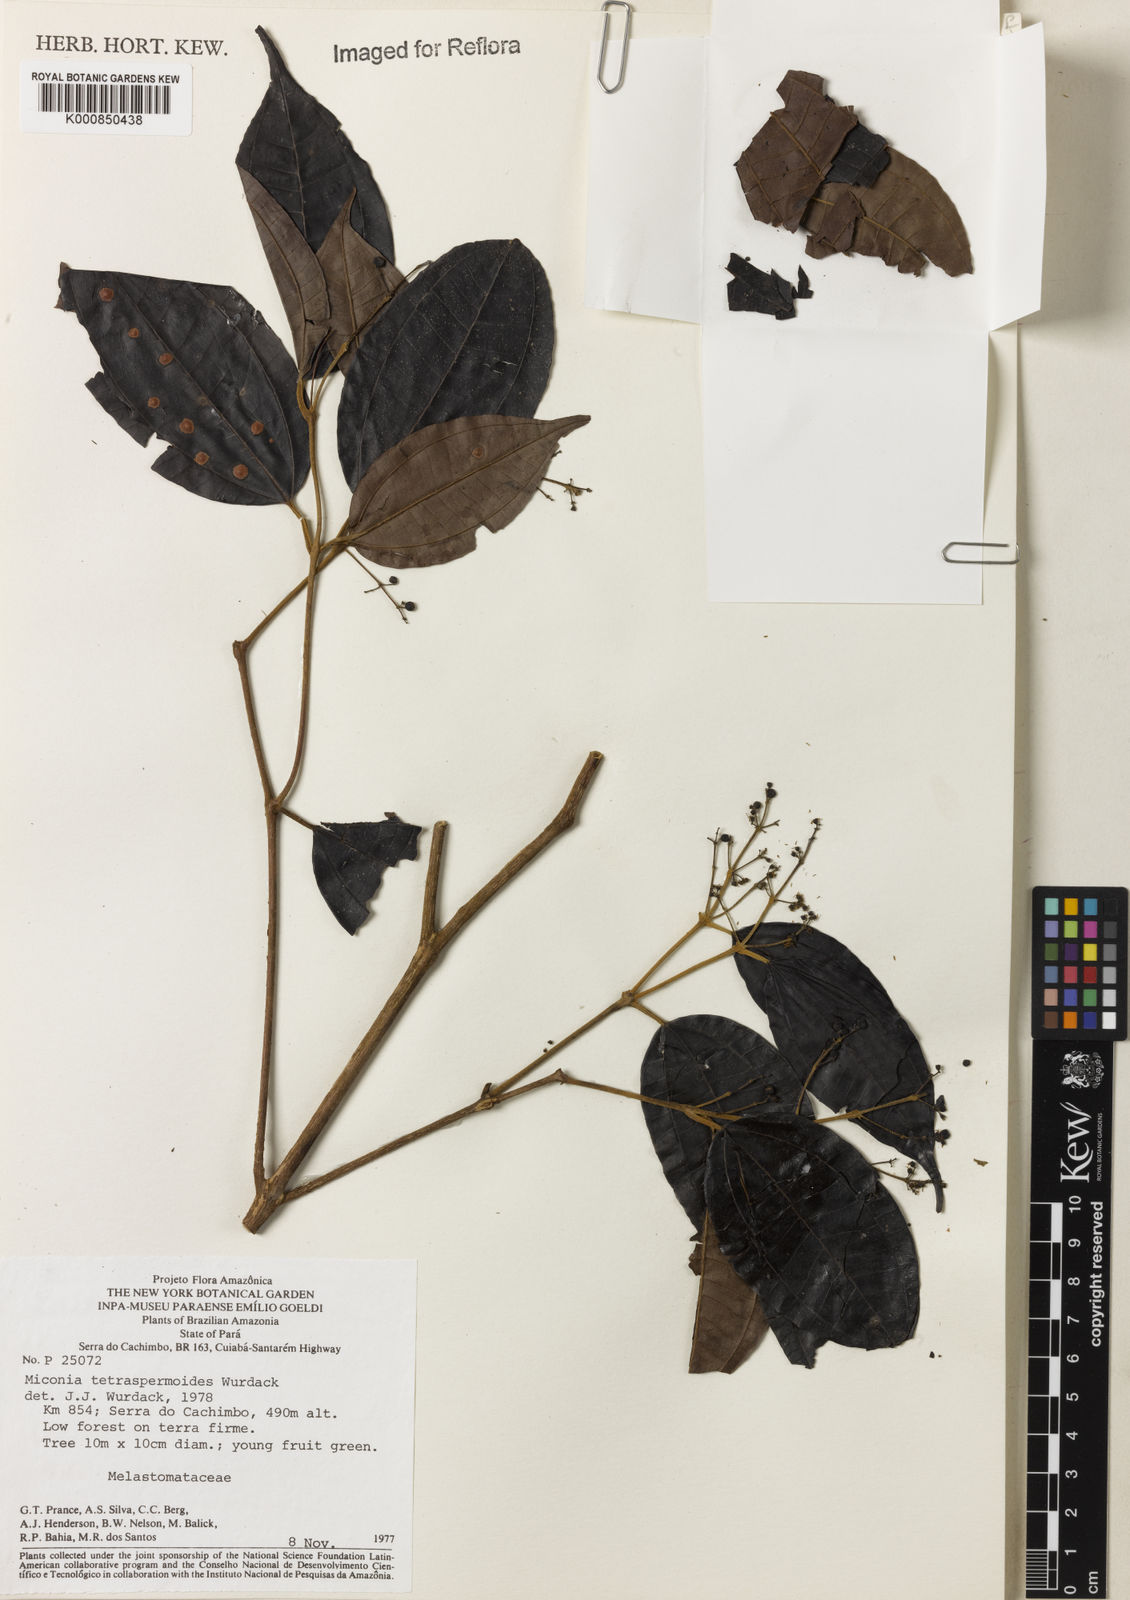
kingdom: Plantae
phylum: Tracheophyta
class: Magnoliopsida
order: Myrtales
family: Melastomataceae
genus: Miconia
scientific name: Miconia tetraspermoides
